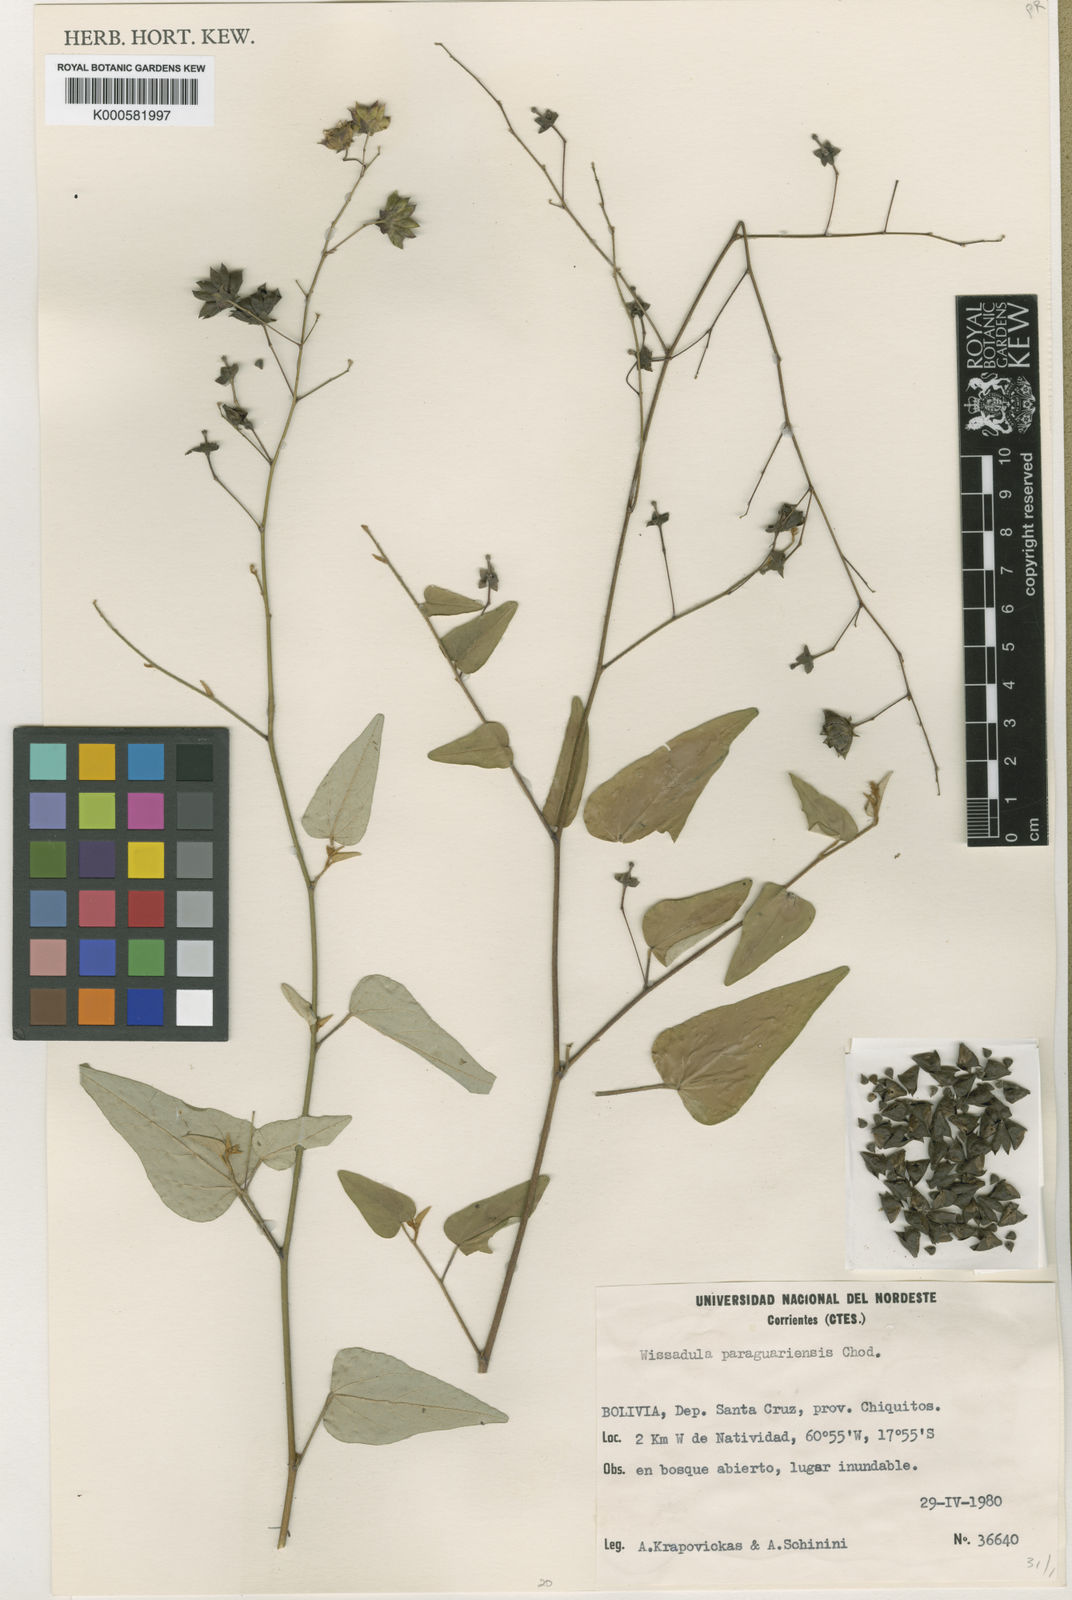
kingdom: Plantae
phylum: Tracheophyta
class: Magnoliopsida
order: Malvales
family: Malvaceae
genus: Wissadula
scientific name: Wissadula paraguariensis
